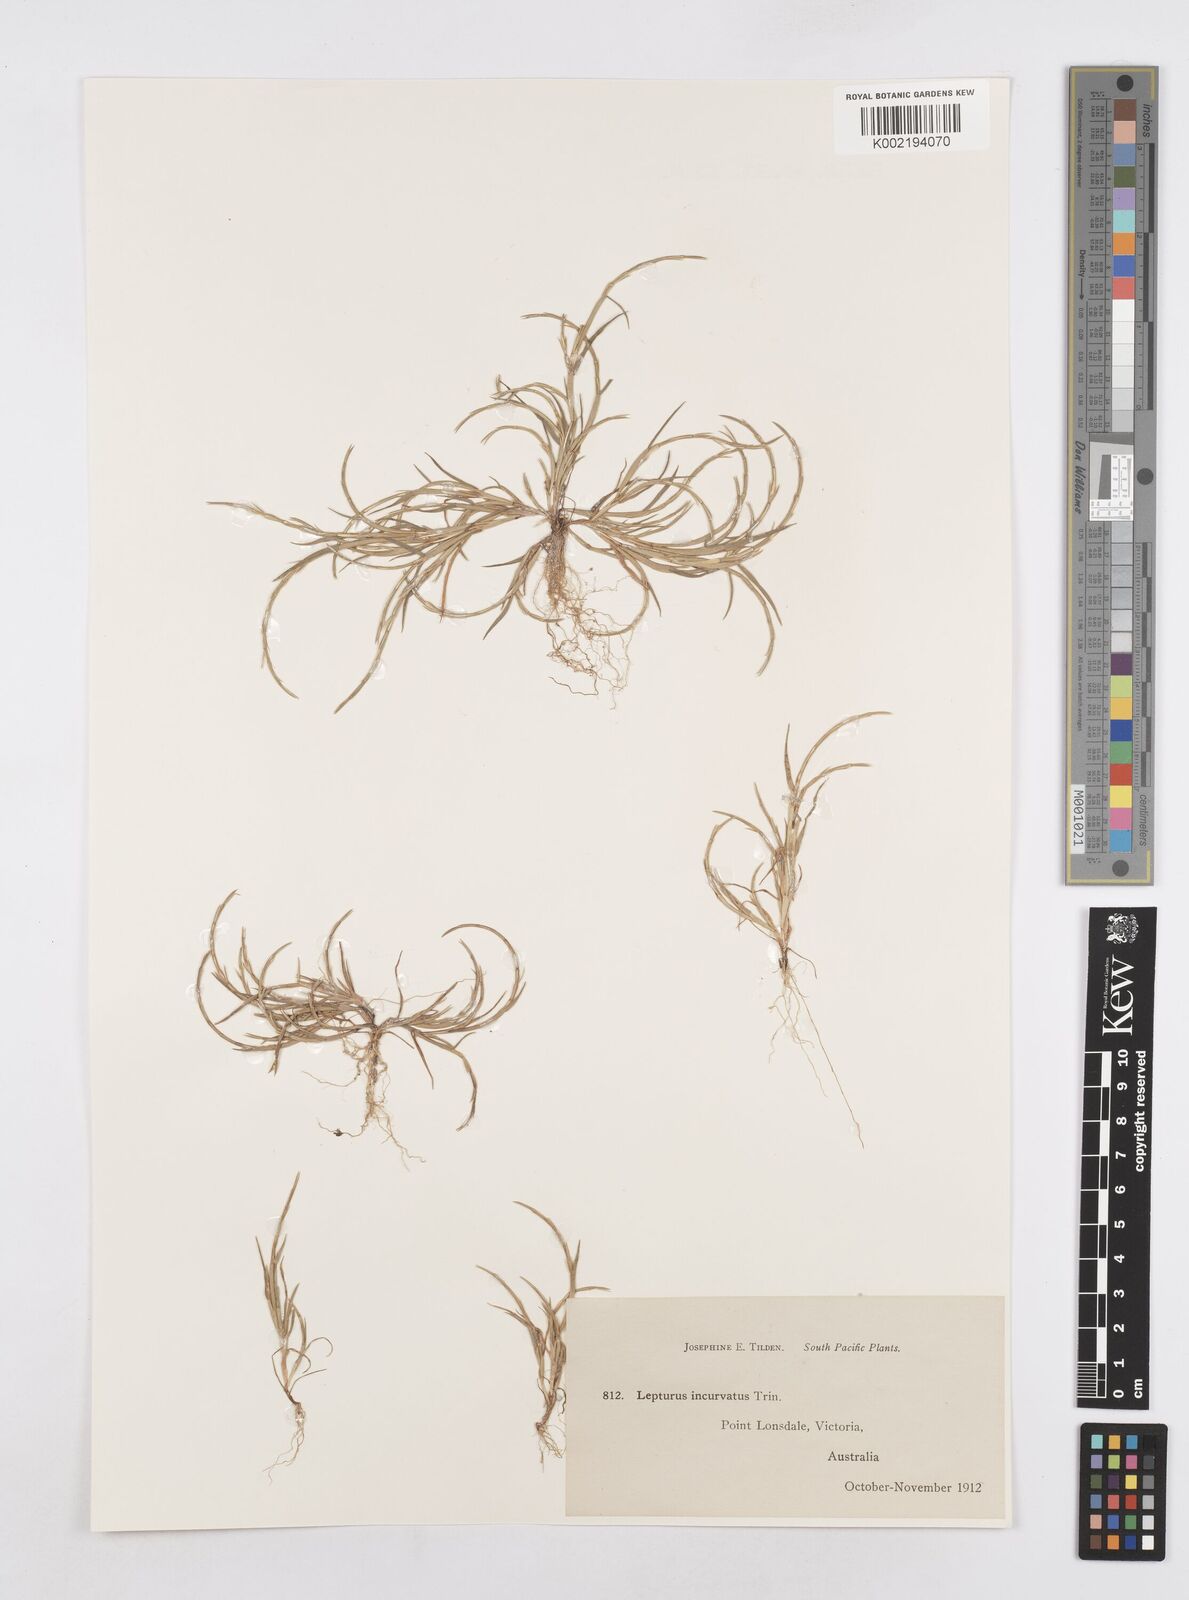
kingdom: Plantae
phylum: Tracheophyta
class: Liliopsida
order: Poales
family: Poaceae
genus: Parapholis
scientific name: Parapholis incurva
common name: Curved sicklegrass
